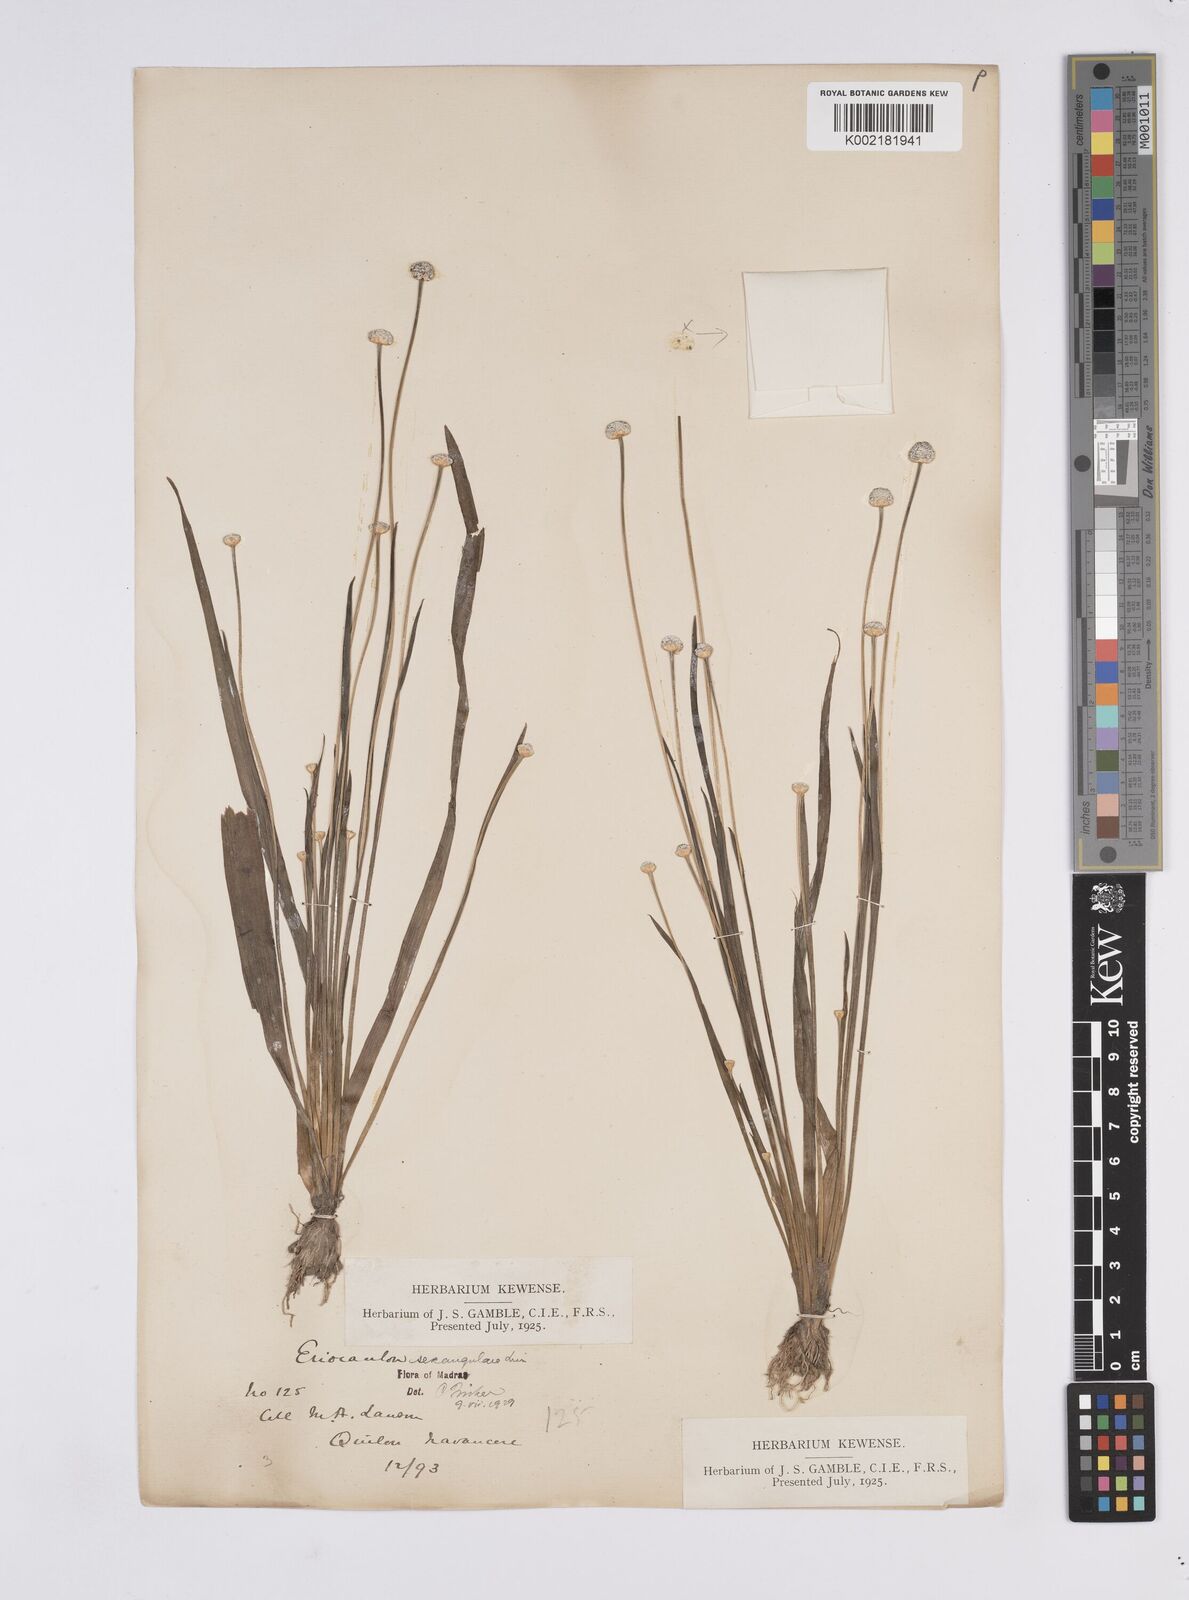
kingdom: Plantae
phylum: Tracheophyta
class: Liliopsida
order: Poales
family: Eriocaulaceae
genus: Eriocaulon
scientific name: Eriocaulon sexangulare
